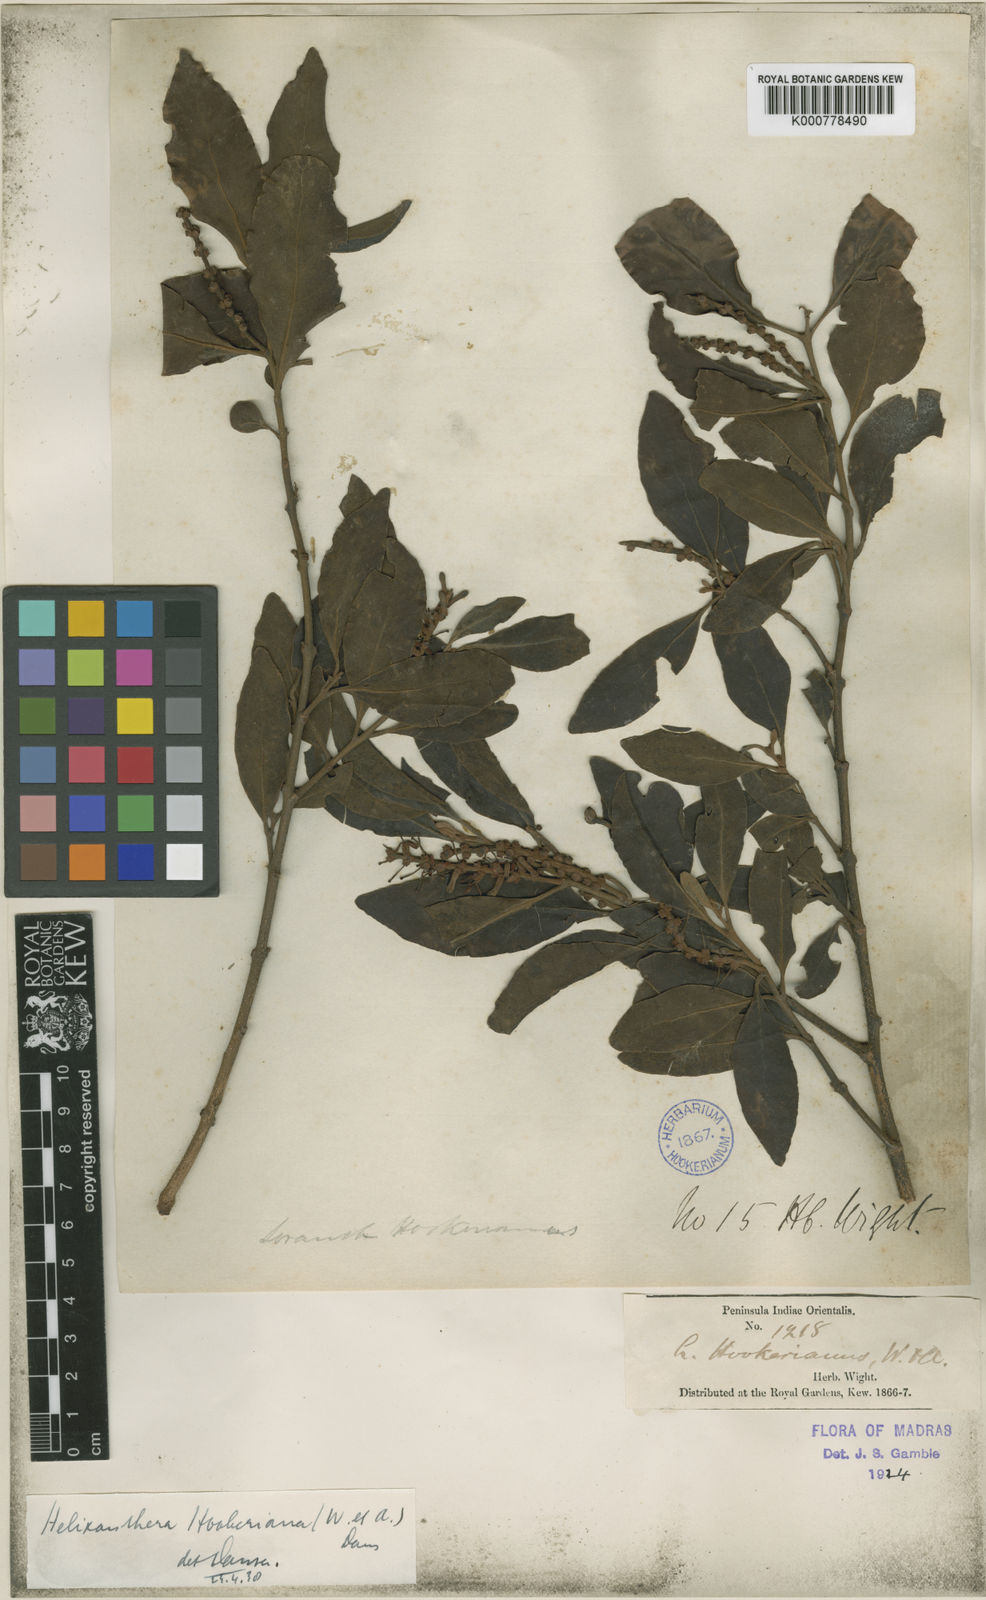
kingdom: Plantae
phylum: Tracheophyta
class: Magnoliopsida
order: Santalales
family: Loranthaceae
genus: Helixanthera
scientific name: Helixanthera hookeriana
